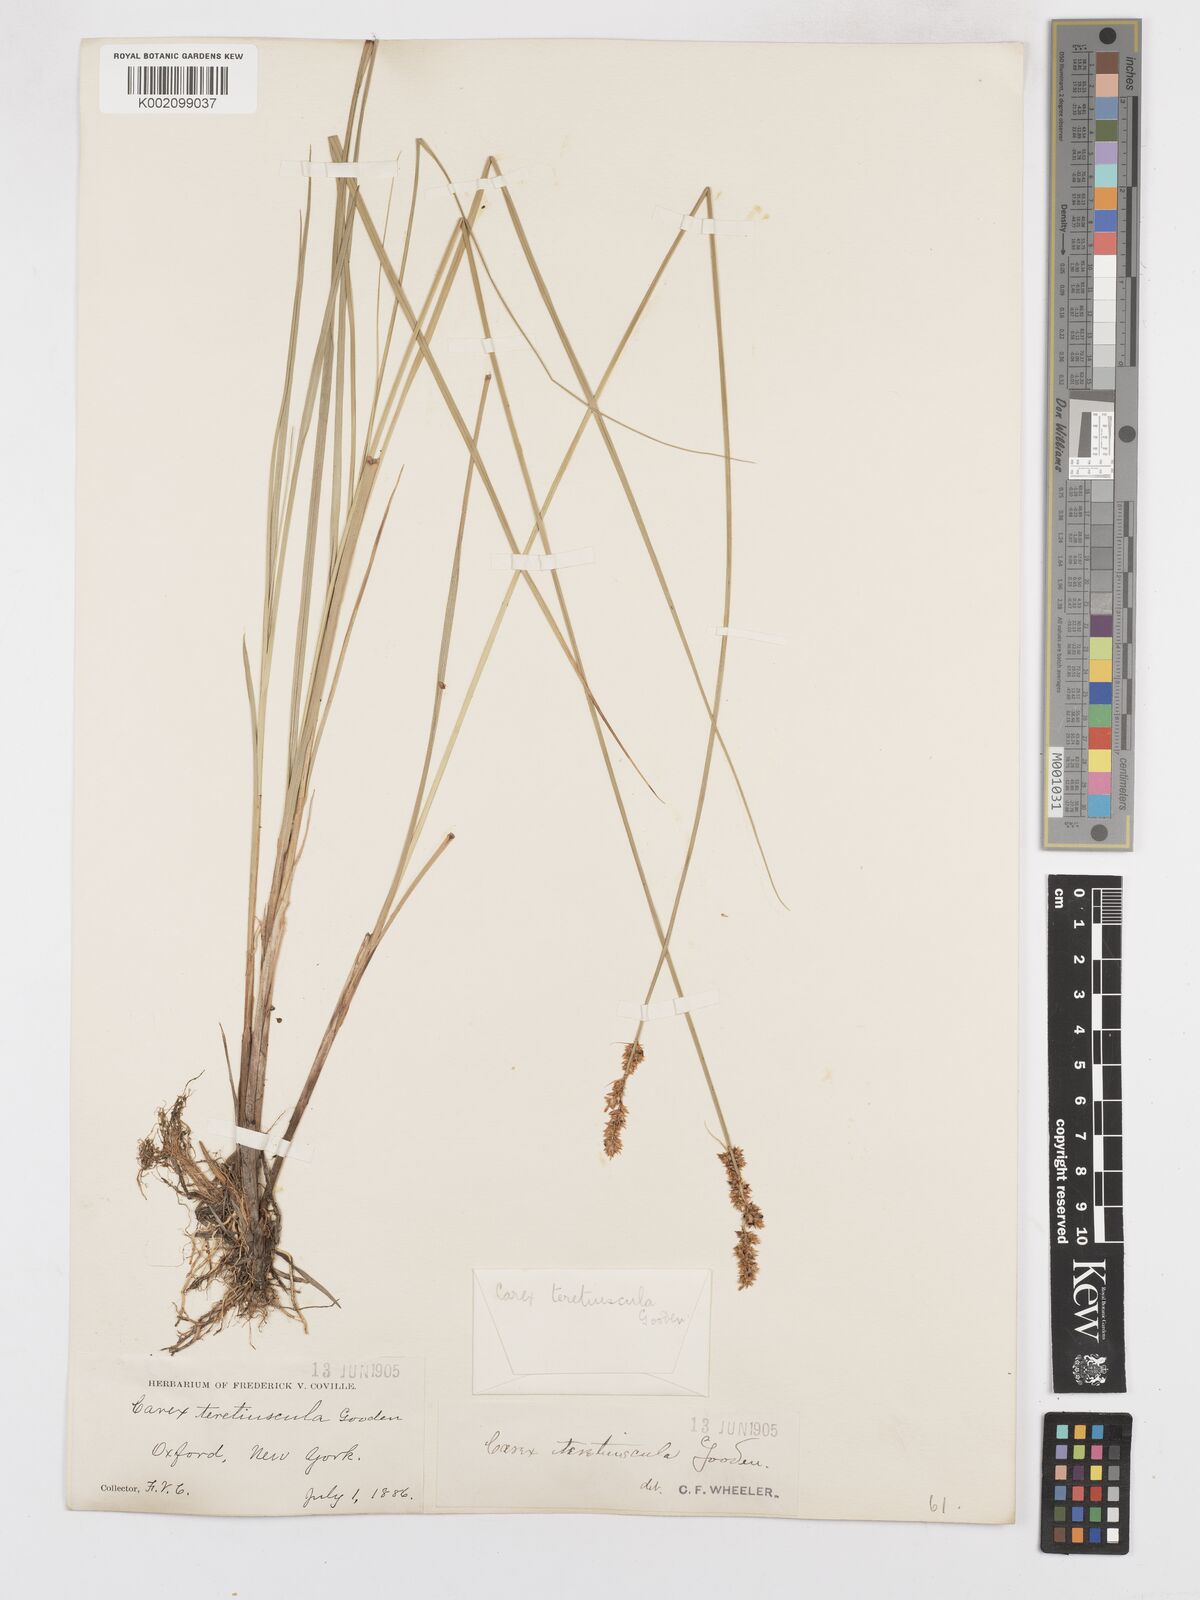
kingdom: Plantae
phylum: Tracheophyta
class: Liliopsida
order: Poales
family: Cyperaceae
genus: Carex
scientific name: Carex diandra
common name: Lesser tussock-sedge
